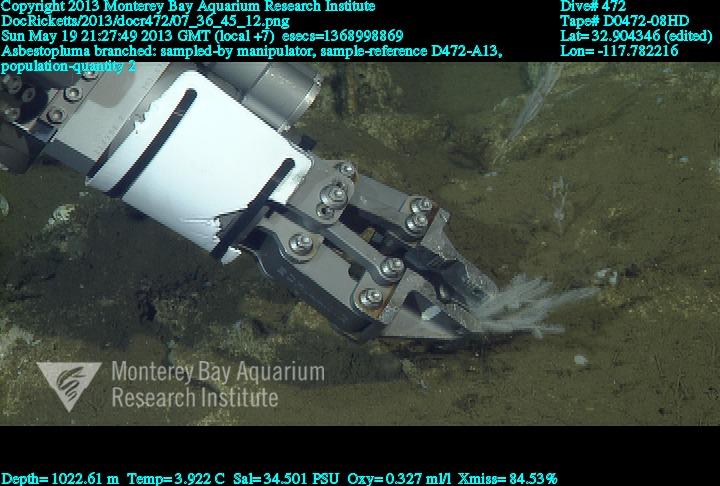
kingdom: Animalia
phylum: Porifera
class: Demospongiae
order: Poecilosclerida
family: Cladorhizidae
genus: Asbestopluma
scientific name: Asbestopluma rickettsi
